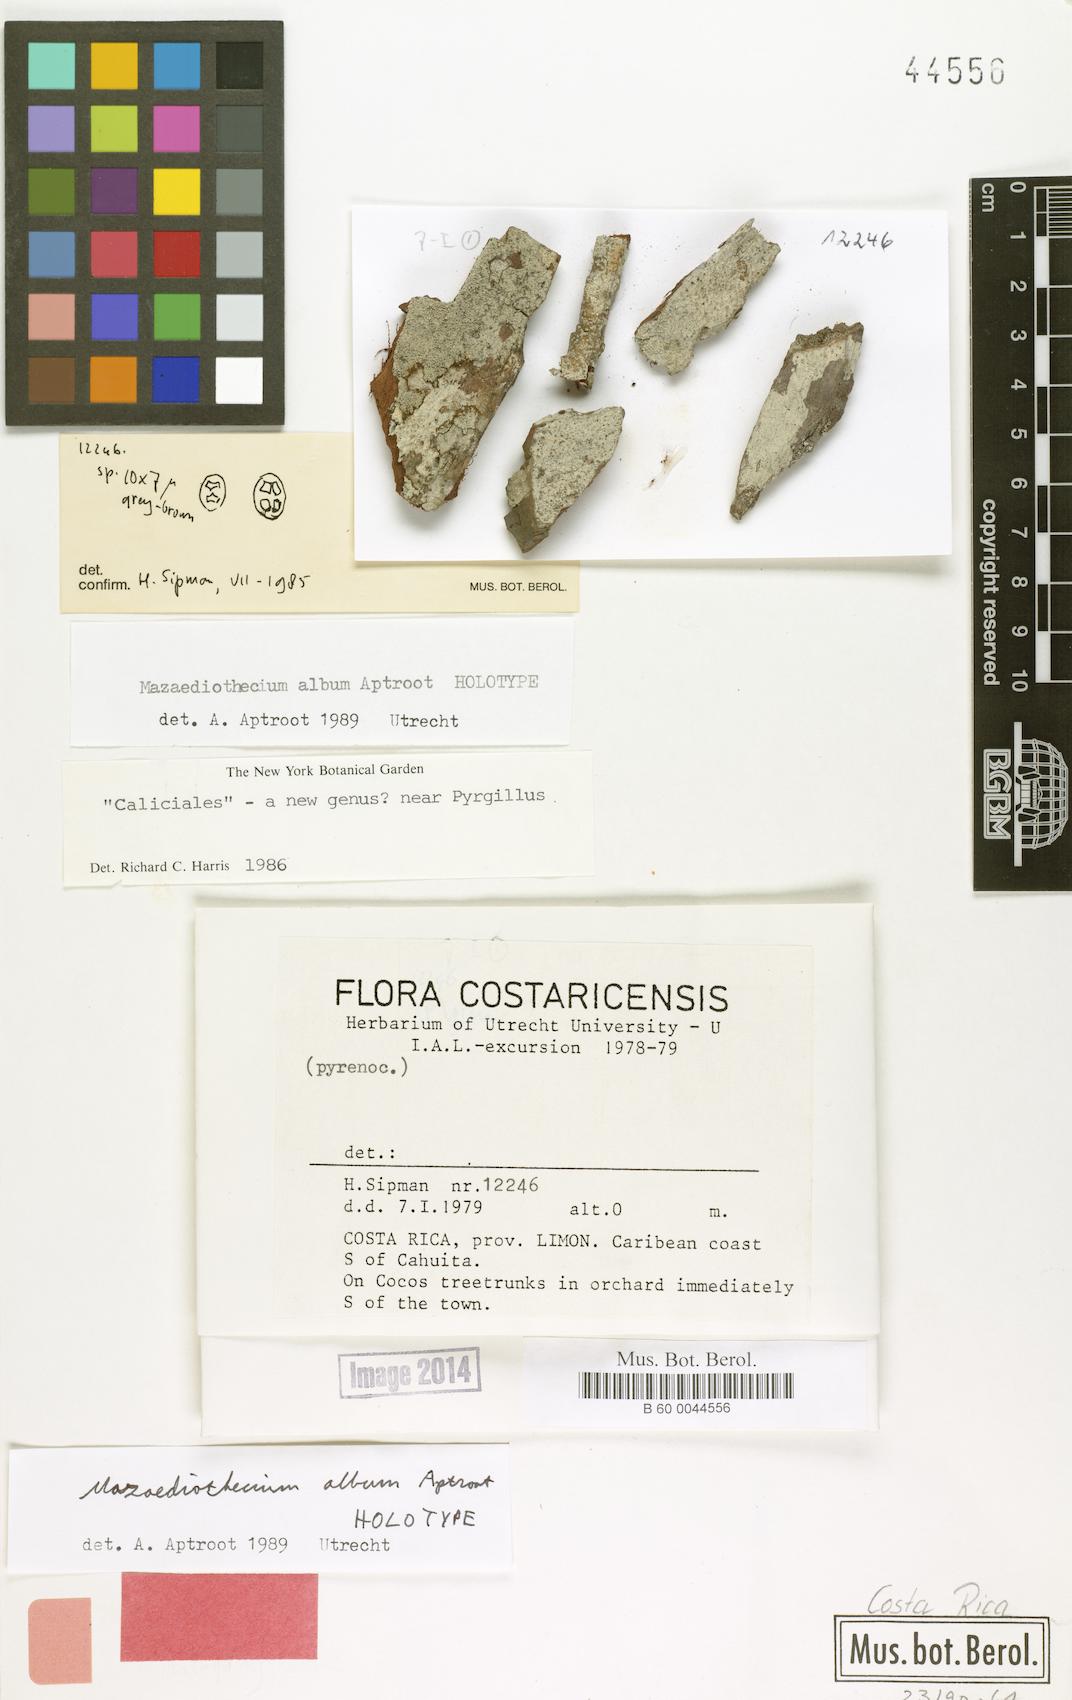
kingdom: Fungi
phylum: Ascomycota
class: Eurotiomycetes
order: Pyrenulales
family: Pyrenulaceae
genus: Pyrenula
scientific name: Pyrenula aptrootiana
